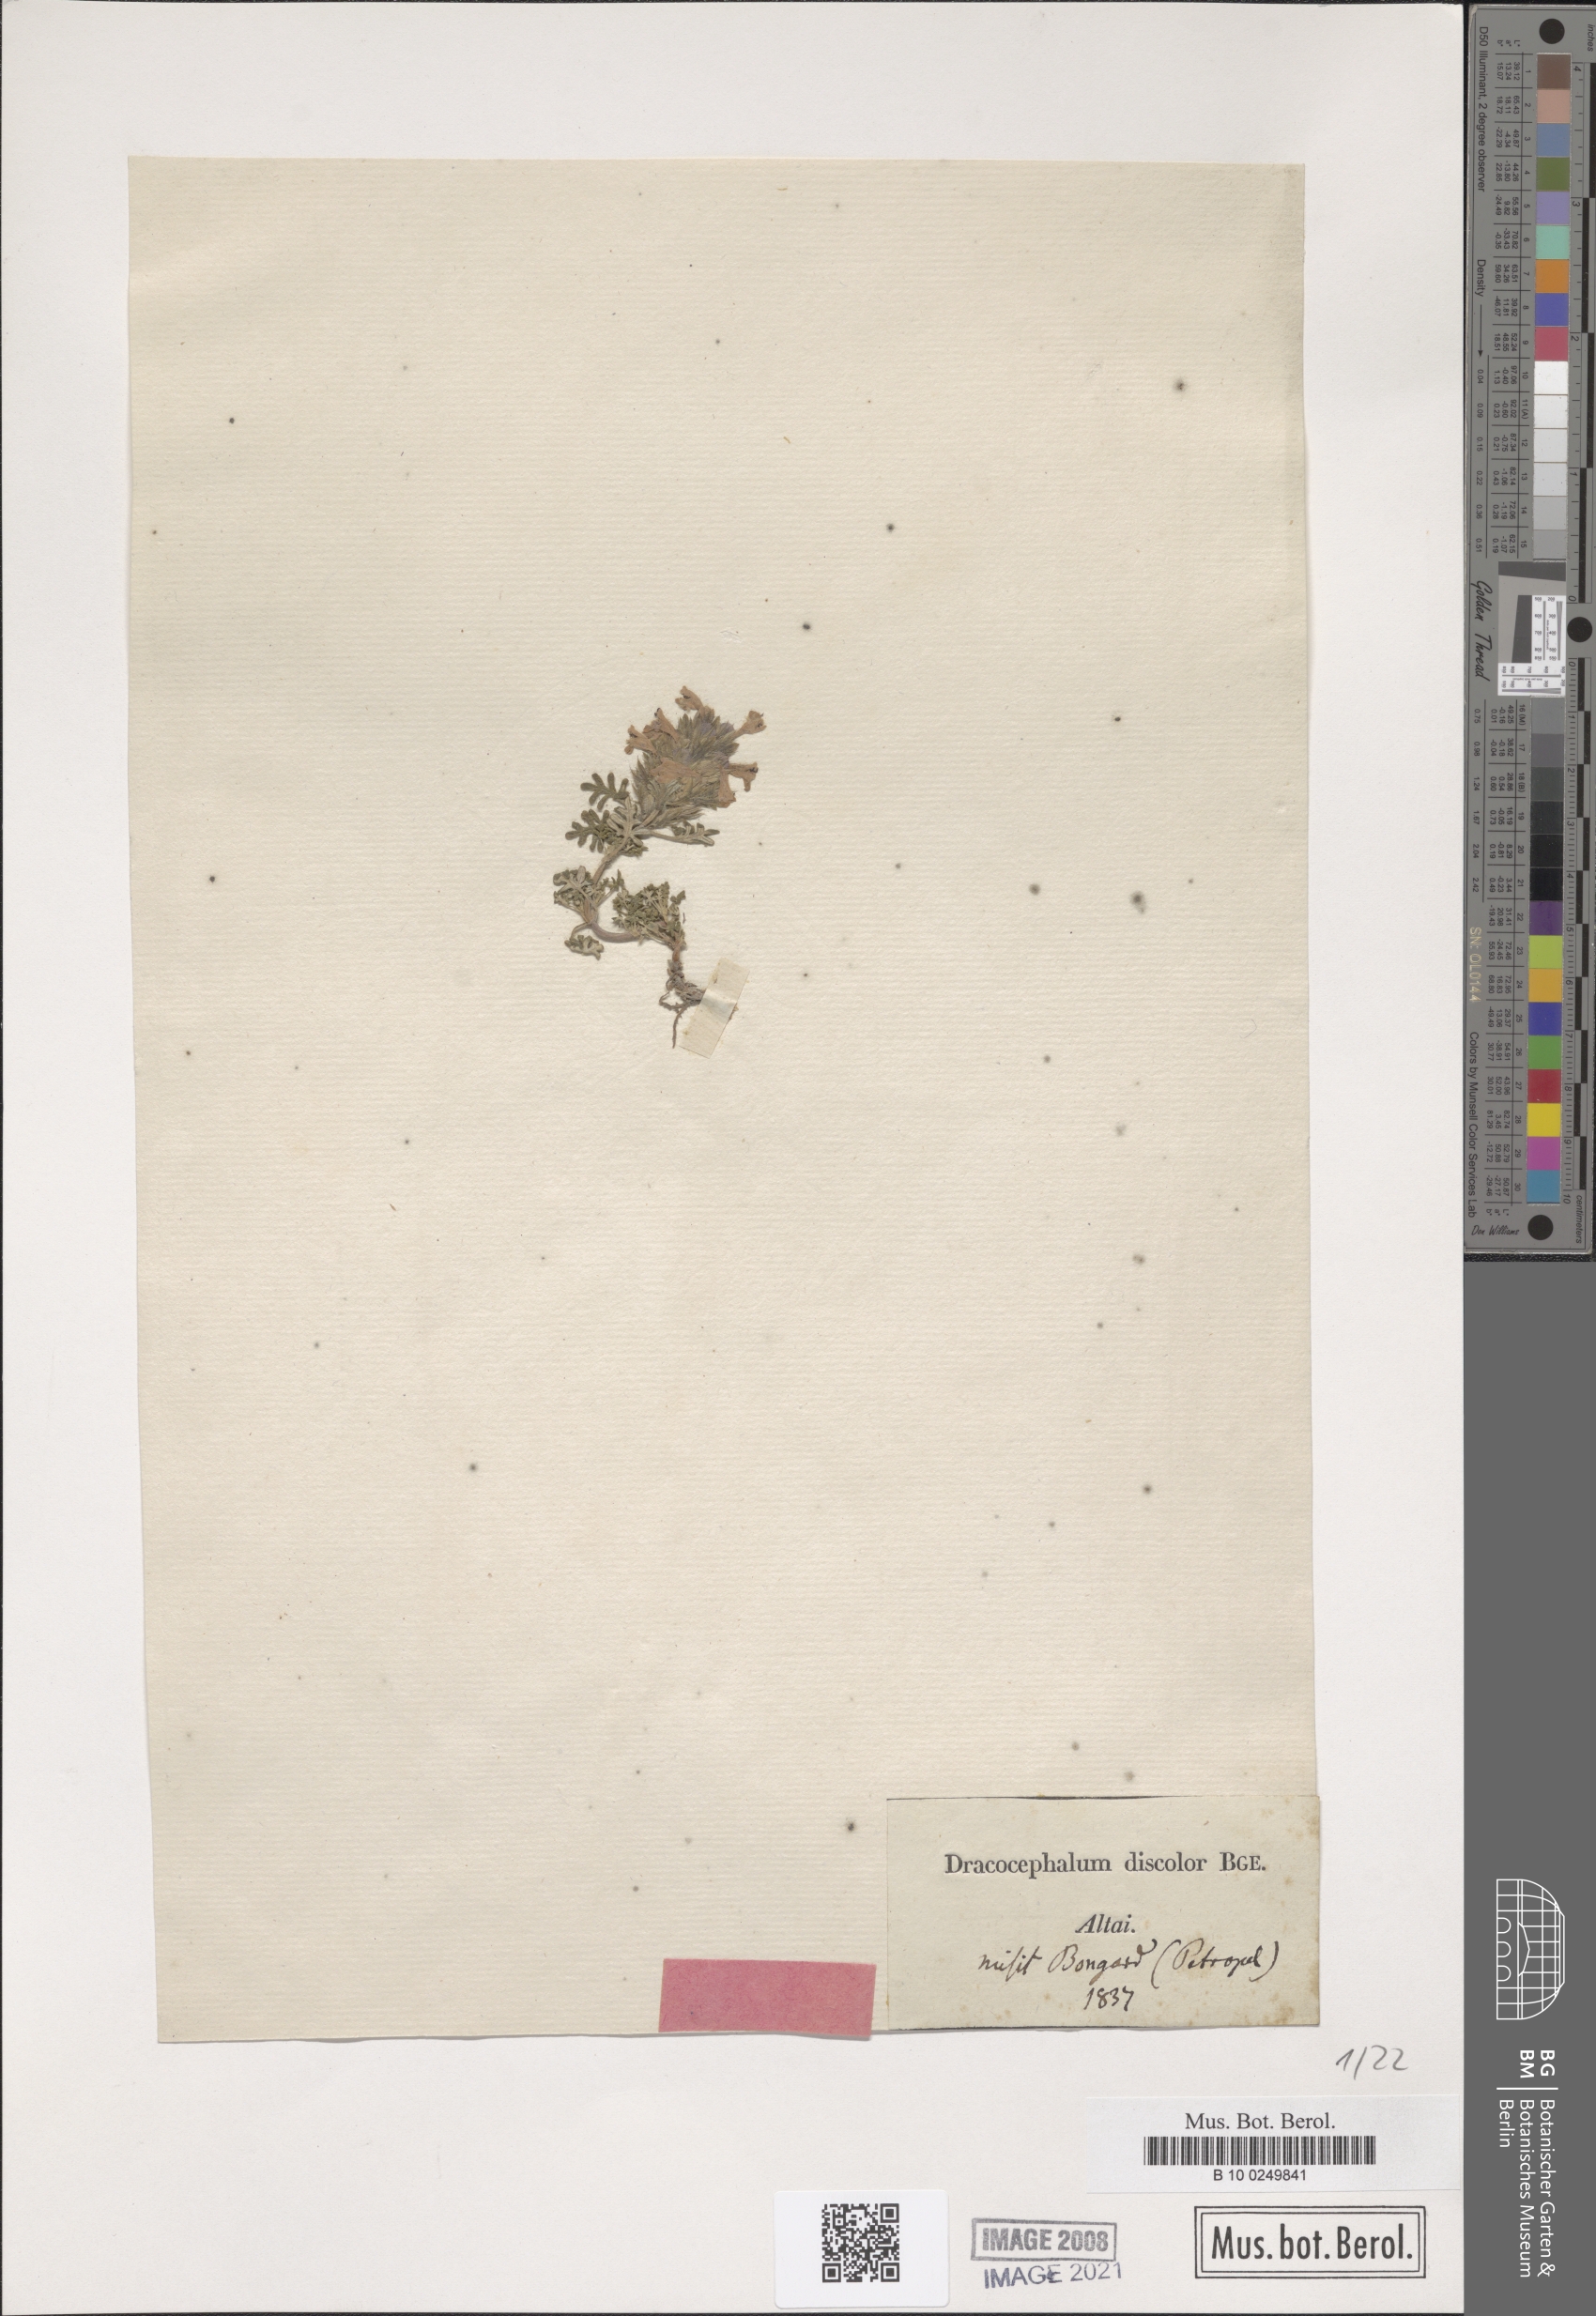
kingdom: Plantae
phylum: Tracheophyta
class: Magnoliopsida
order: Lamiales
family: Lamiaceae
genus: Dracocephalum
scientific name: Dracocephalum discolor
